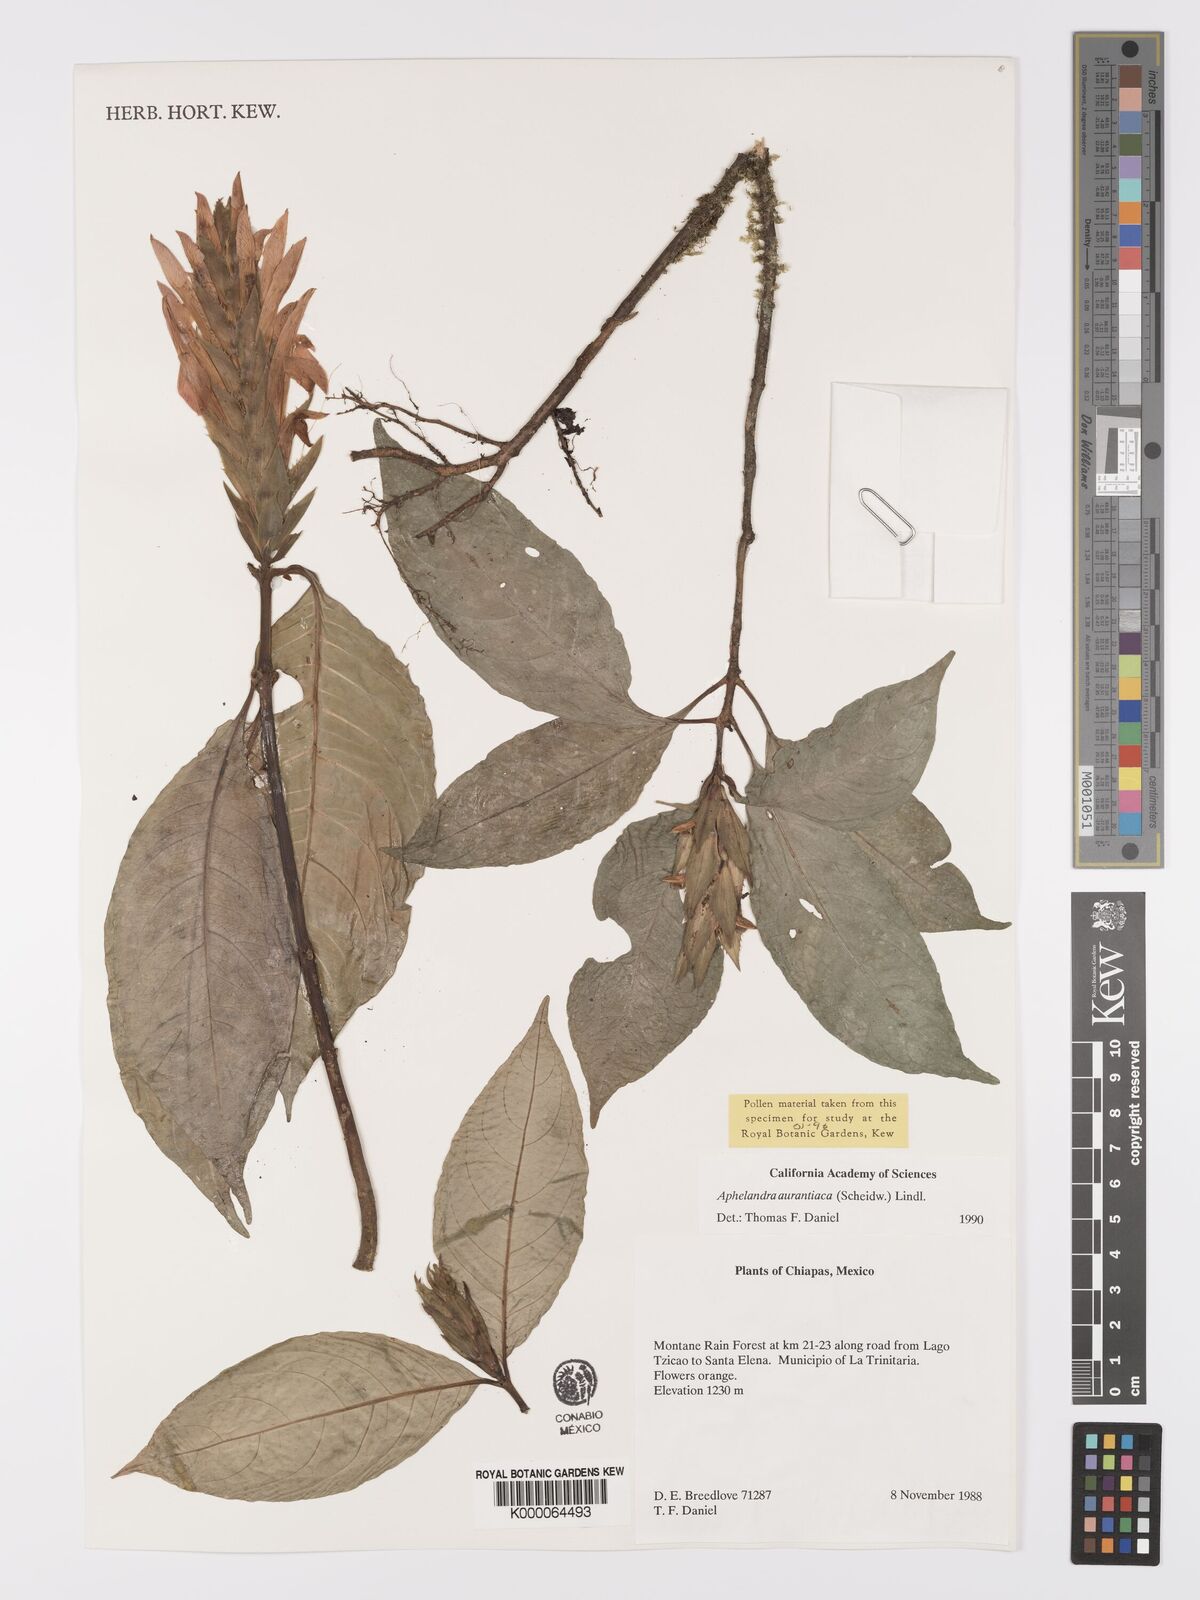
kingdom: Plantae
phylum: Tracheophyta
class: Magnoliopsida
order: Lamiales
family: Acanthaceae
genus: Aphelandra
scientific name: Aphelandra aurantiaca
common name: Fiery spike
